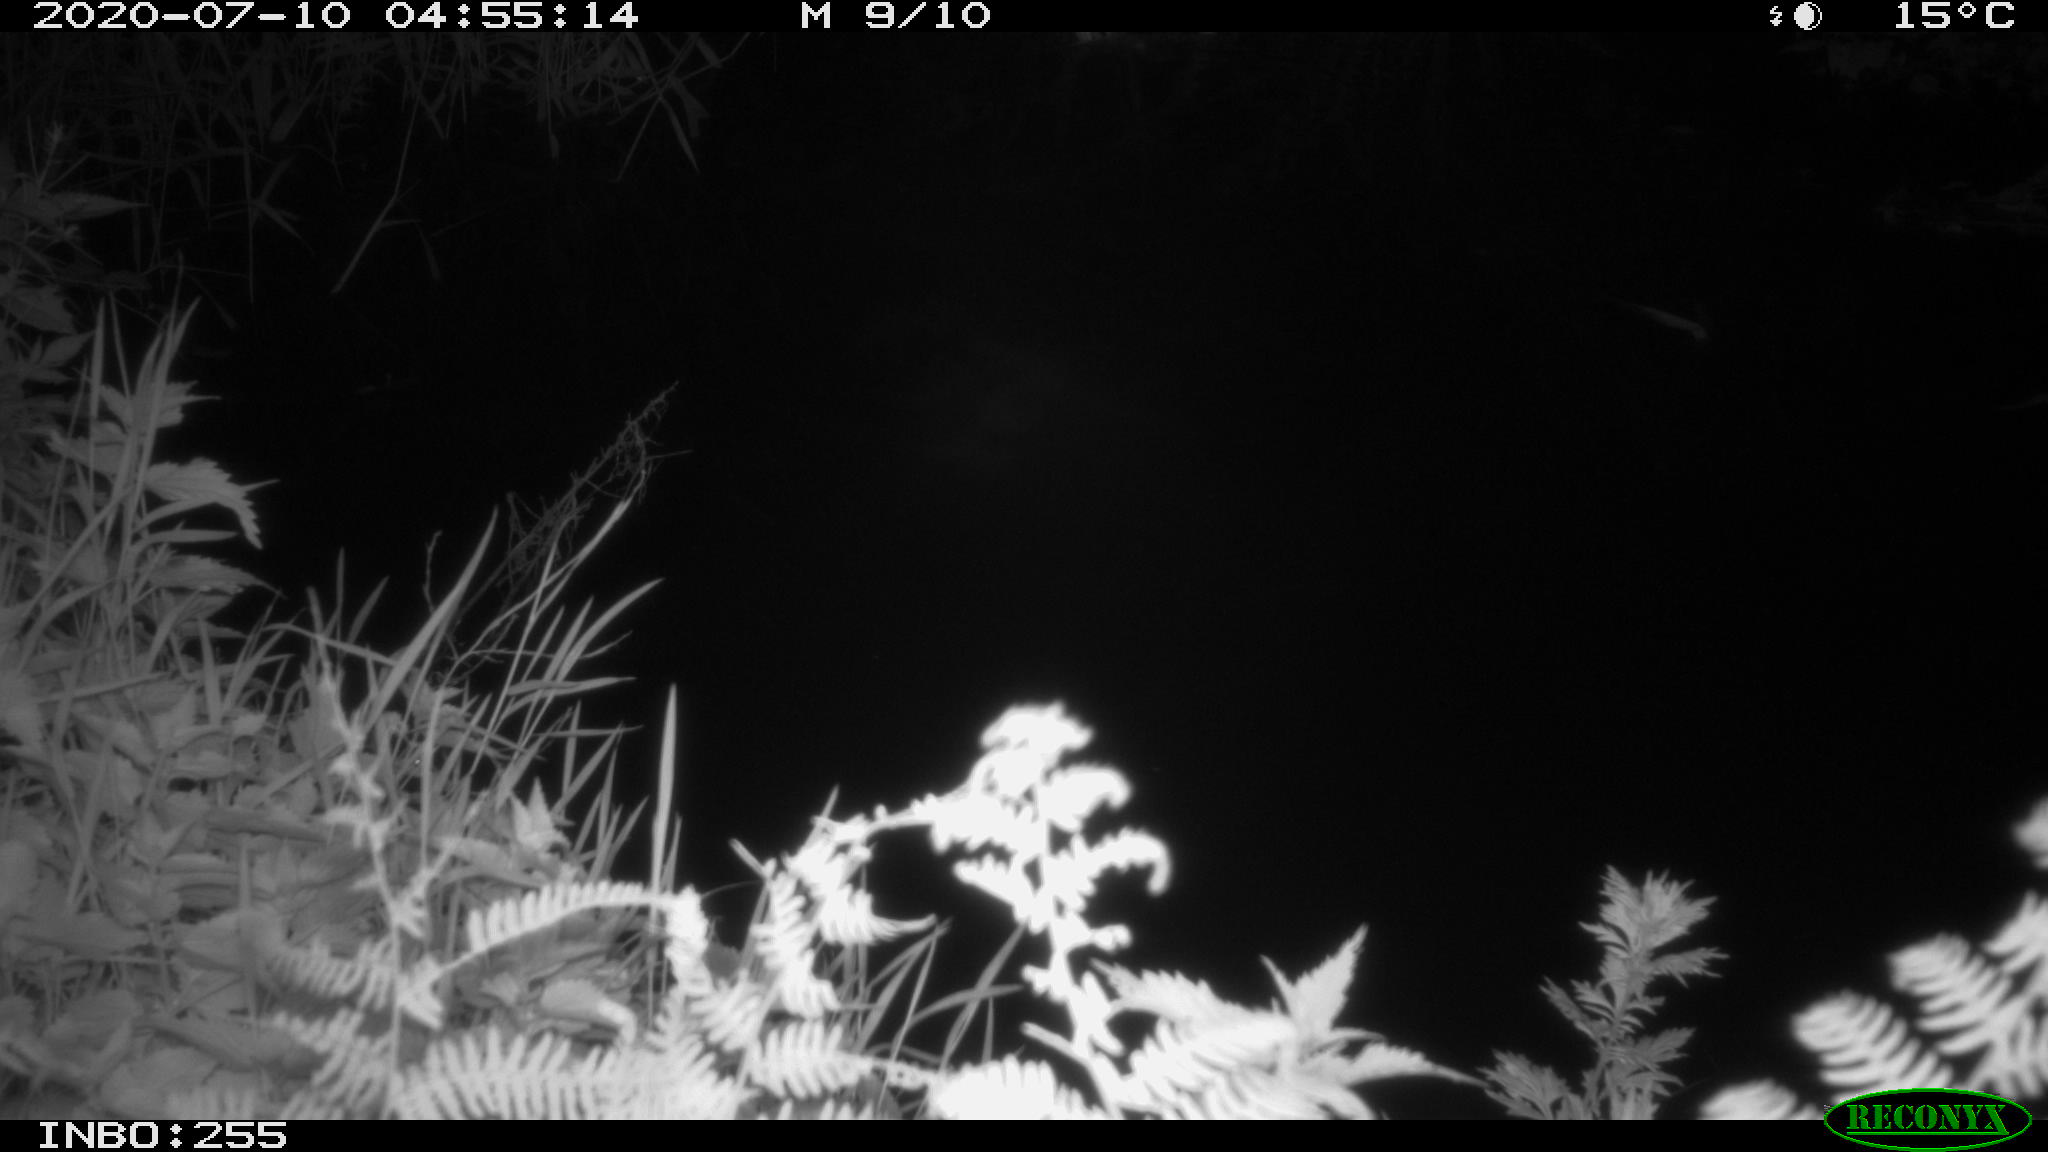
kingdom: Animalia
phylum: Chordata
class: Aves
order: Anseriformes
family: Anatidae
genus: Anas
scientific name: Anas platyrhynchos
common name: Mallard
